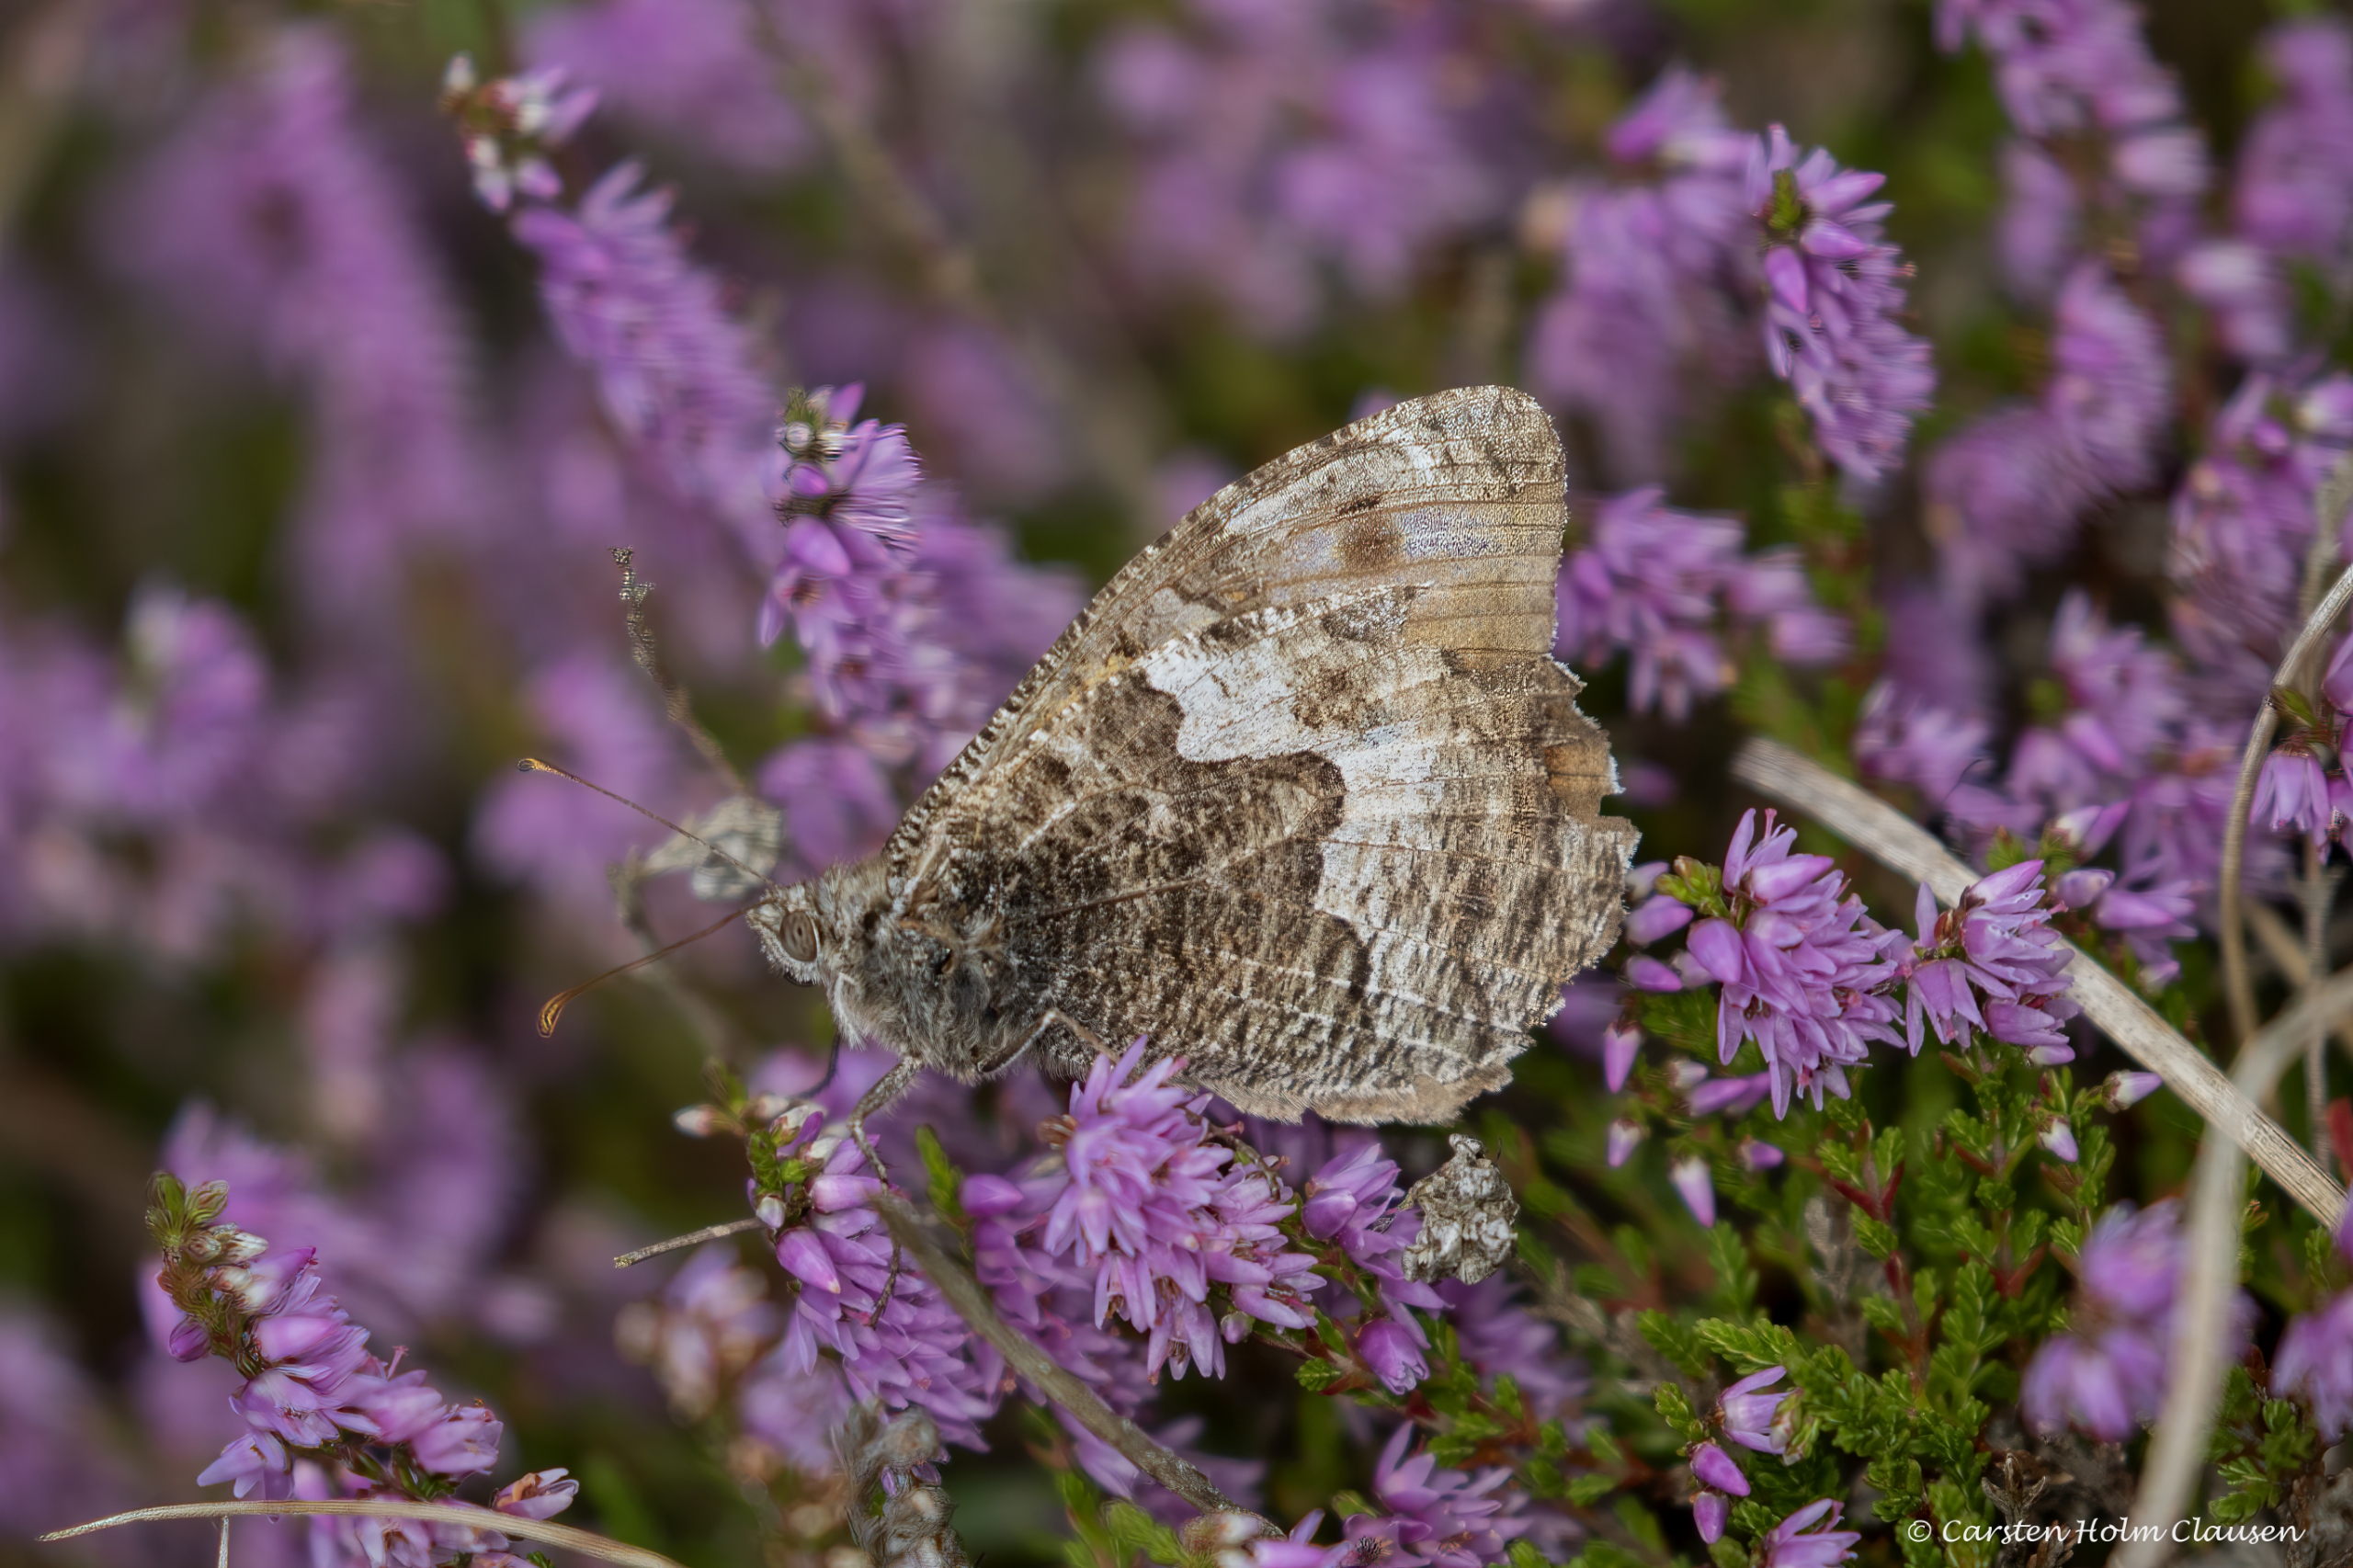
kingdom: Animalia
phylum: Arthropoda
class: Insecta
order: Lepidoptera
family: Nymphalidae
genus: Hipparchia
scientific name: Hipparchia semele
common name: Sandrandøje
